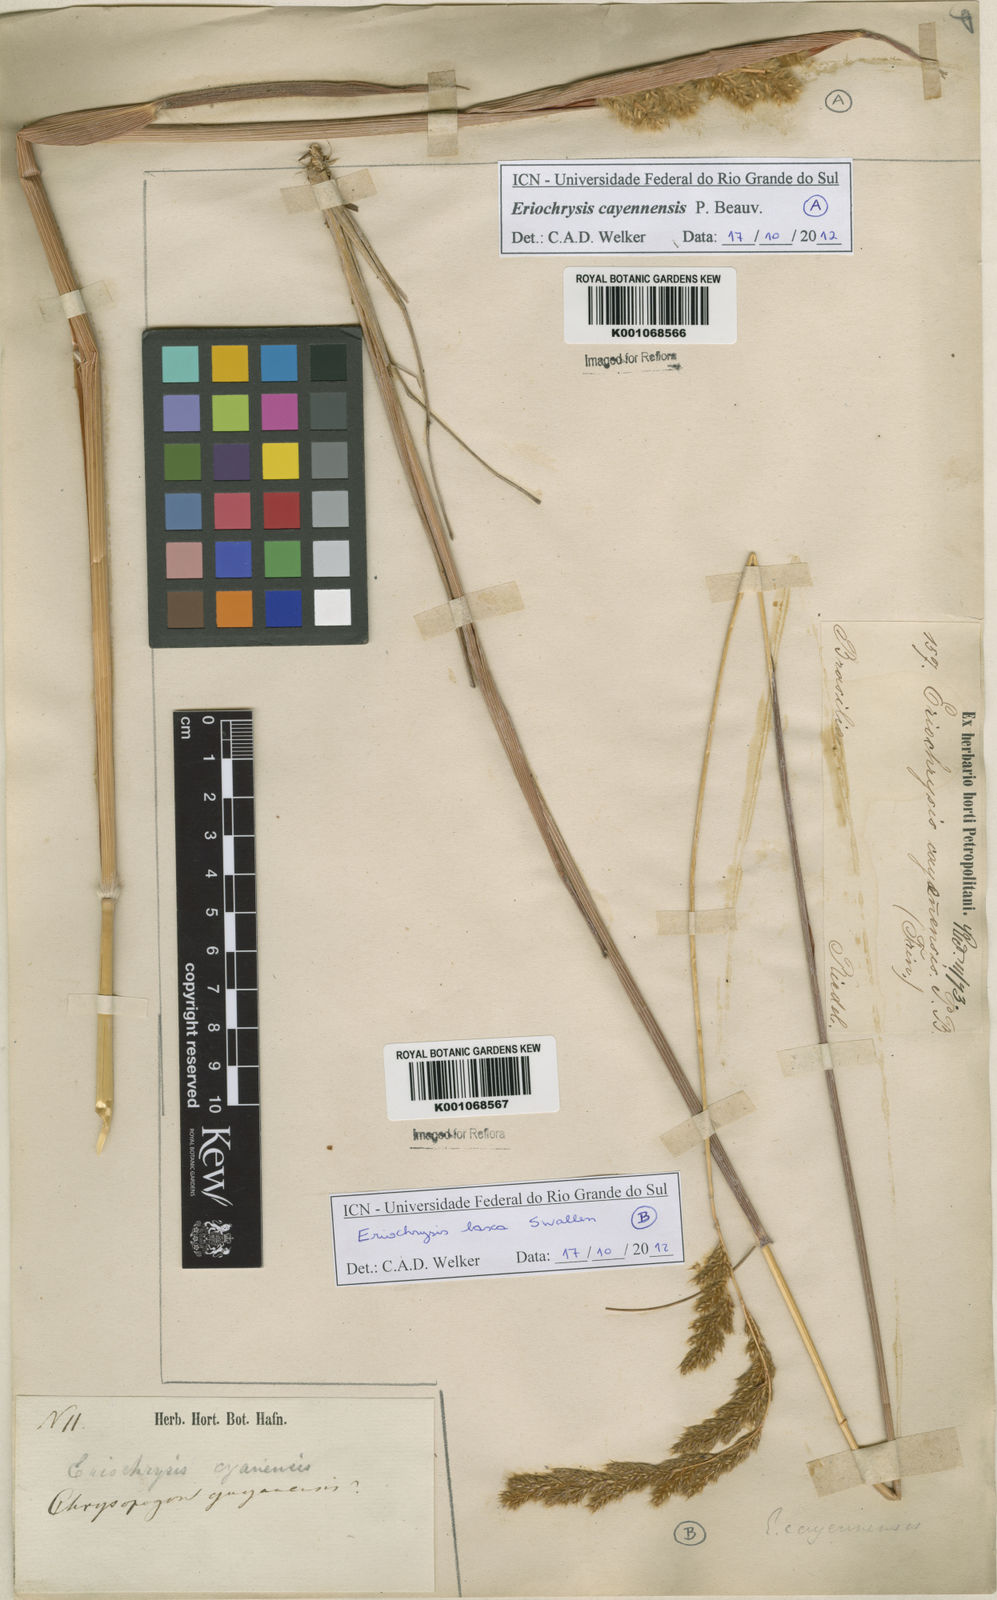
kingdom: Plantae
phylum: Tracheophyta
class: Liliopsida
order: Poales
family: Poaceae
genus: Eriochrysis
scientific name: Eriochrysis laxa
